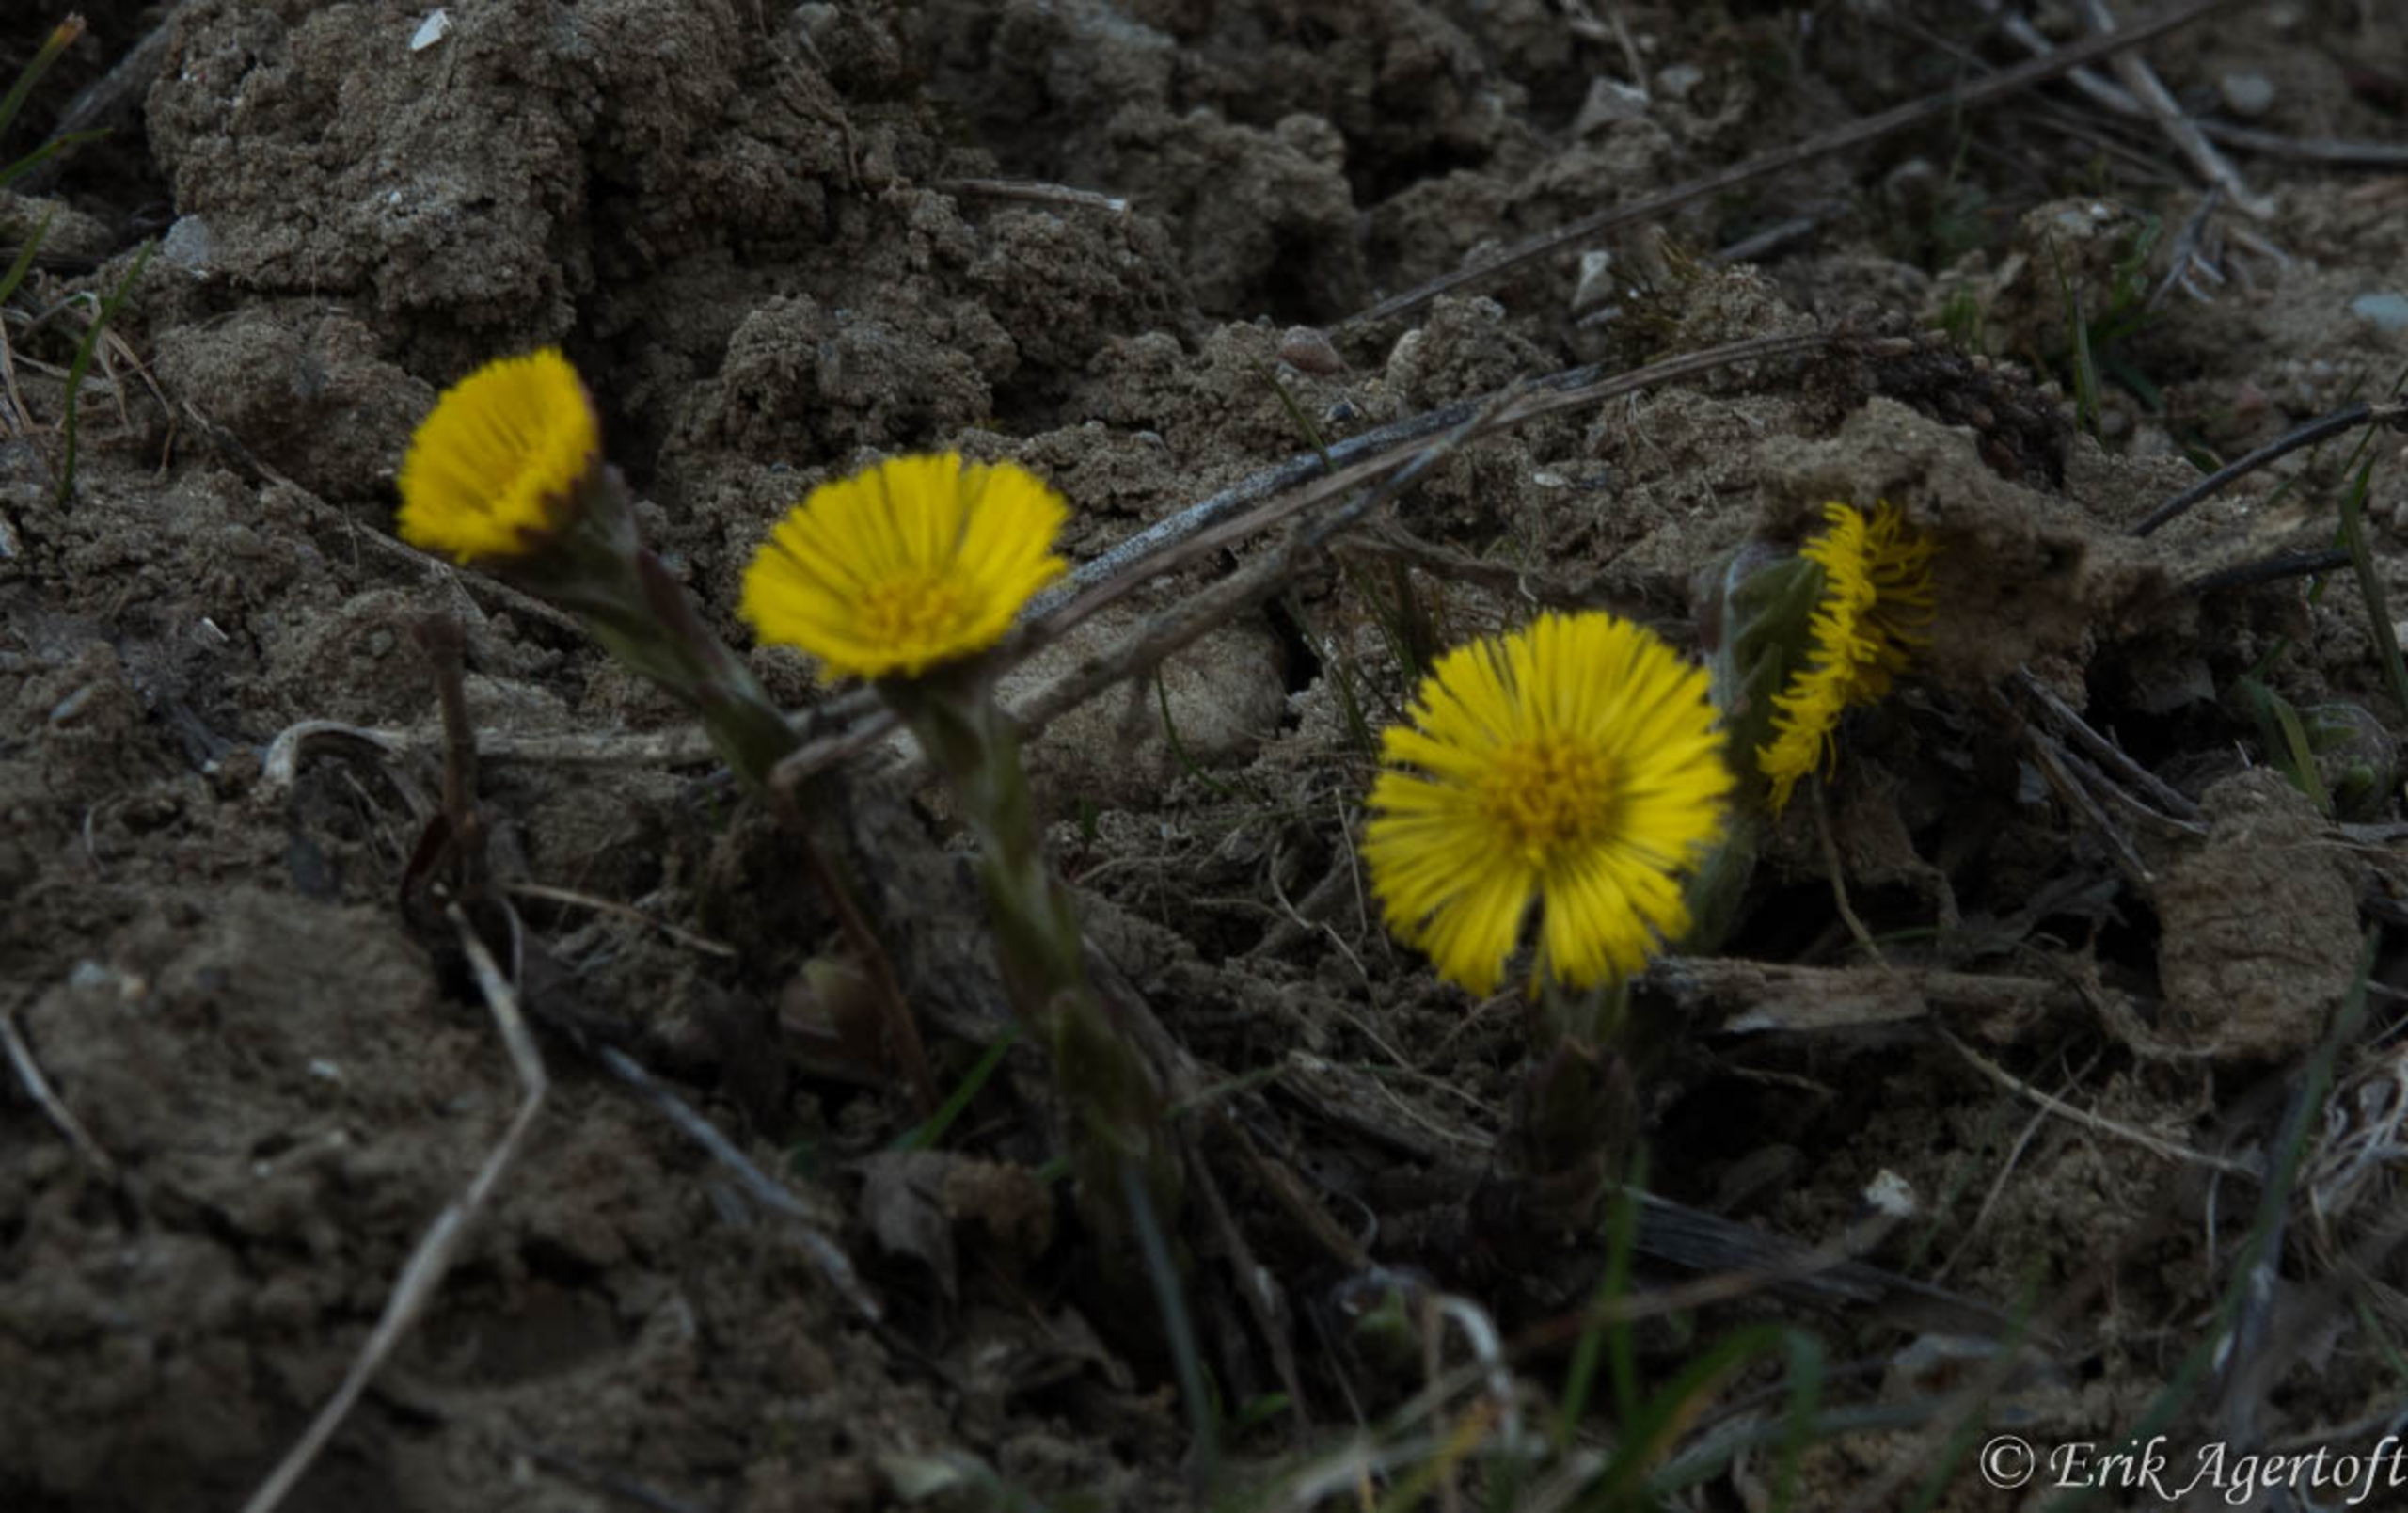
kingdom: Plantae
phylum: Tracheophyta
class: Magnoliopsida
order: Asterales
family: Asteraceae
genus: Tussilago
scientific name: Tussilago farfara
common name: Følfod
